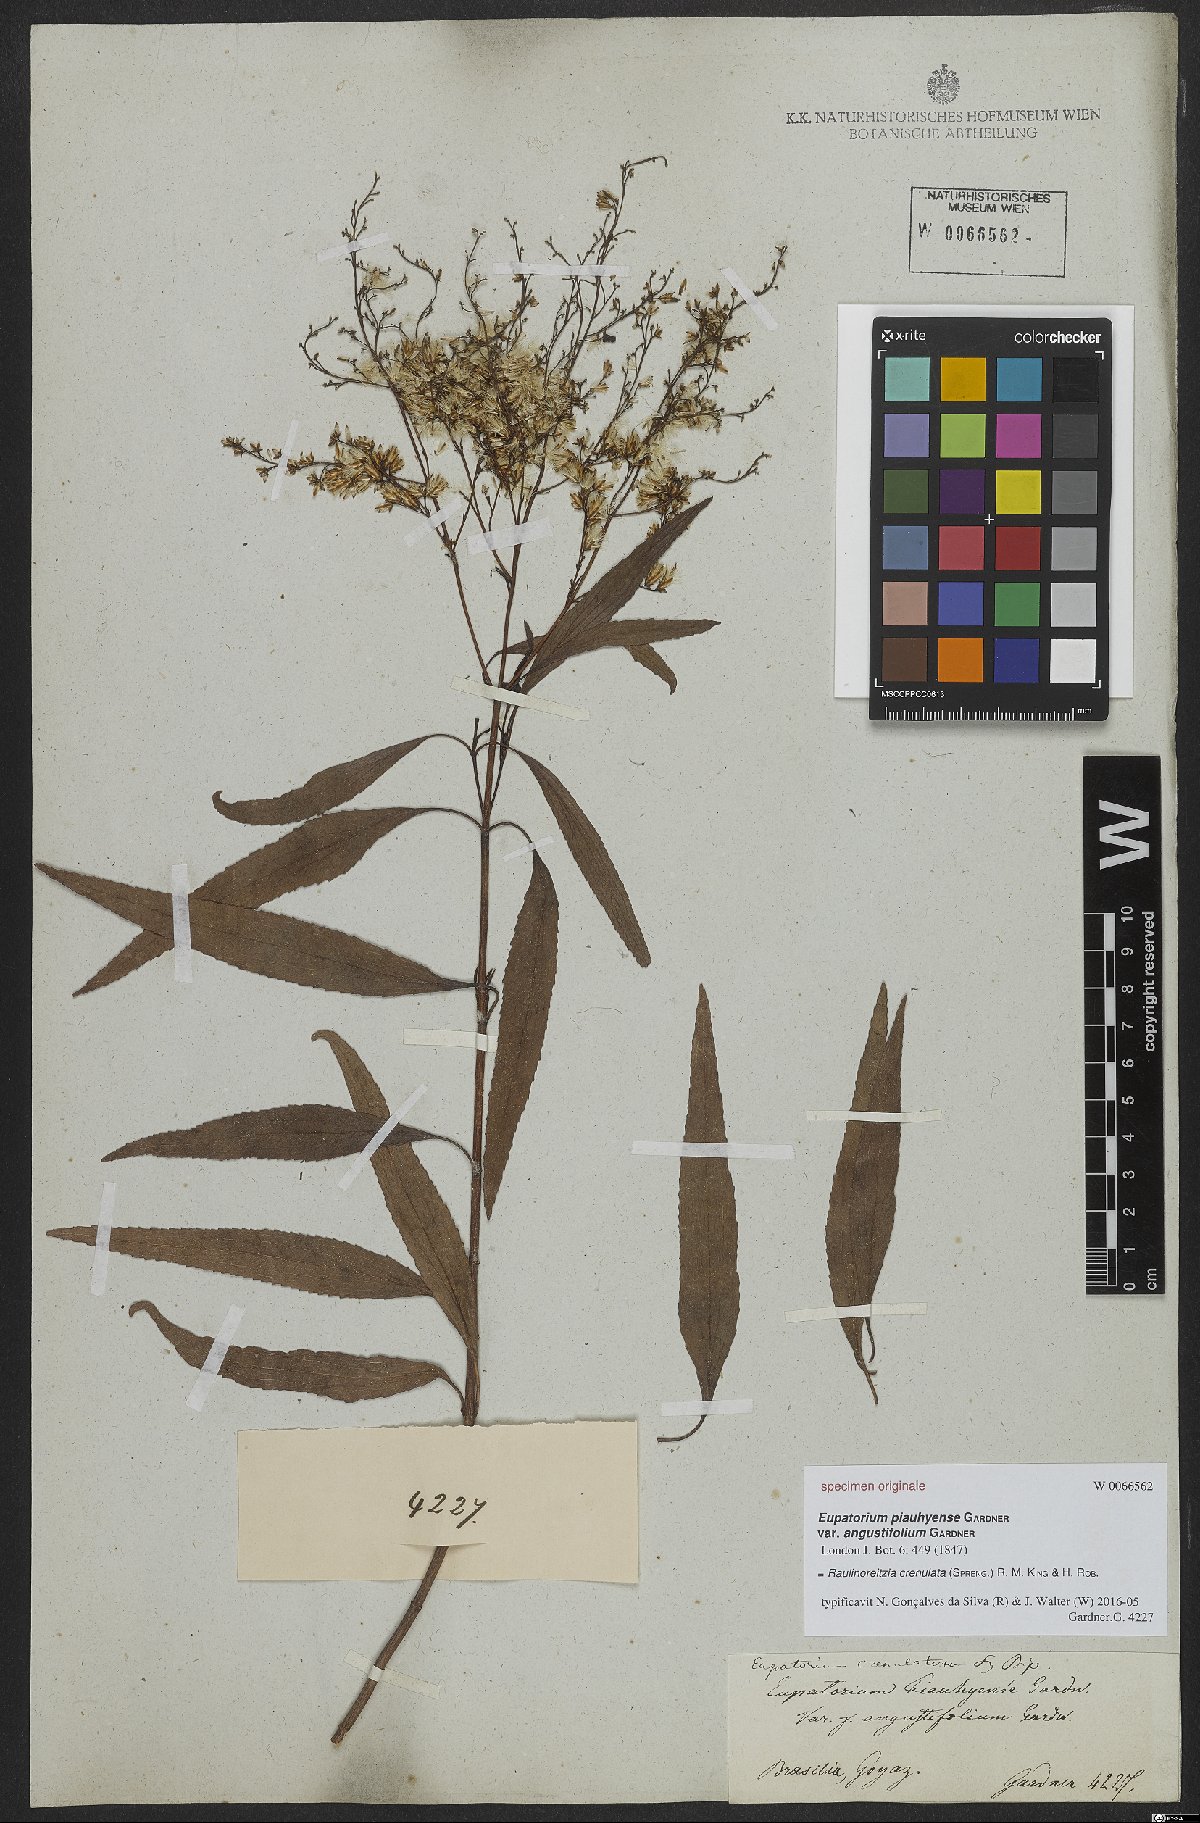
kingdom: Plantae
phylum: Tracheophyta
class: Magnoliopsida
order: Asterales
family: Asteraceae
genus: Raulinoreitzia
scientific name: Raulinoreitzia crenulata
